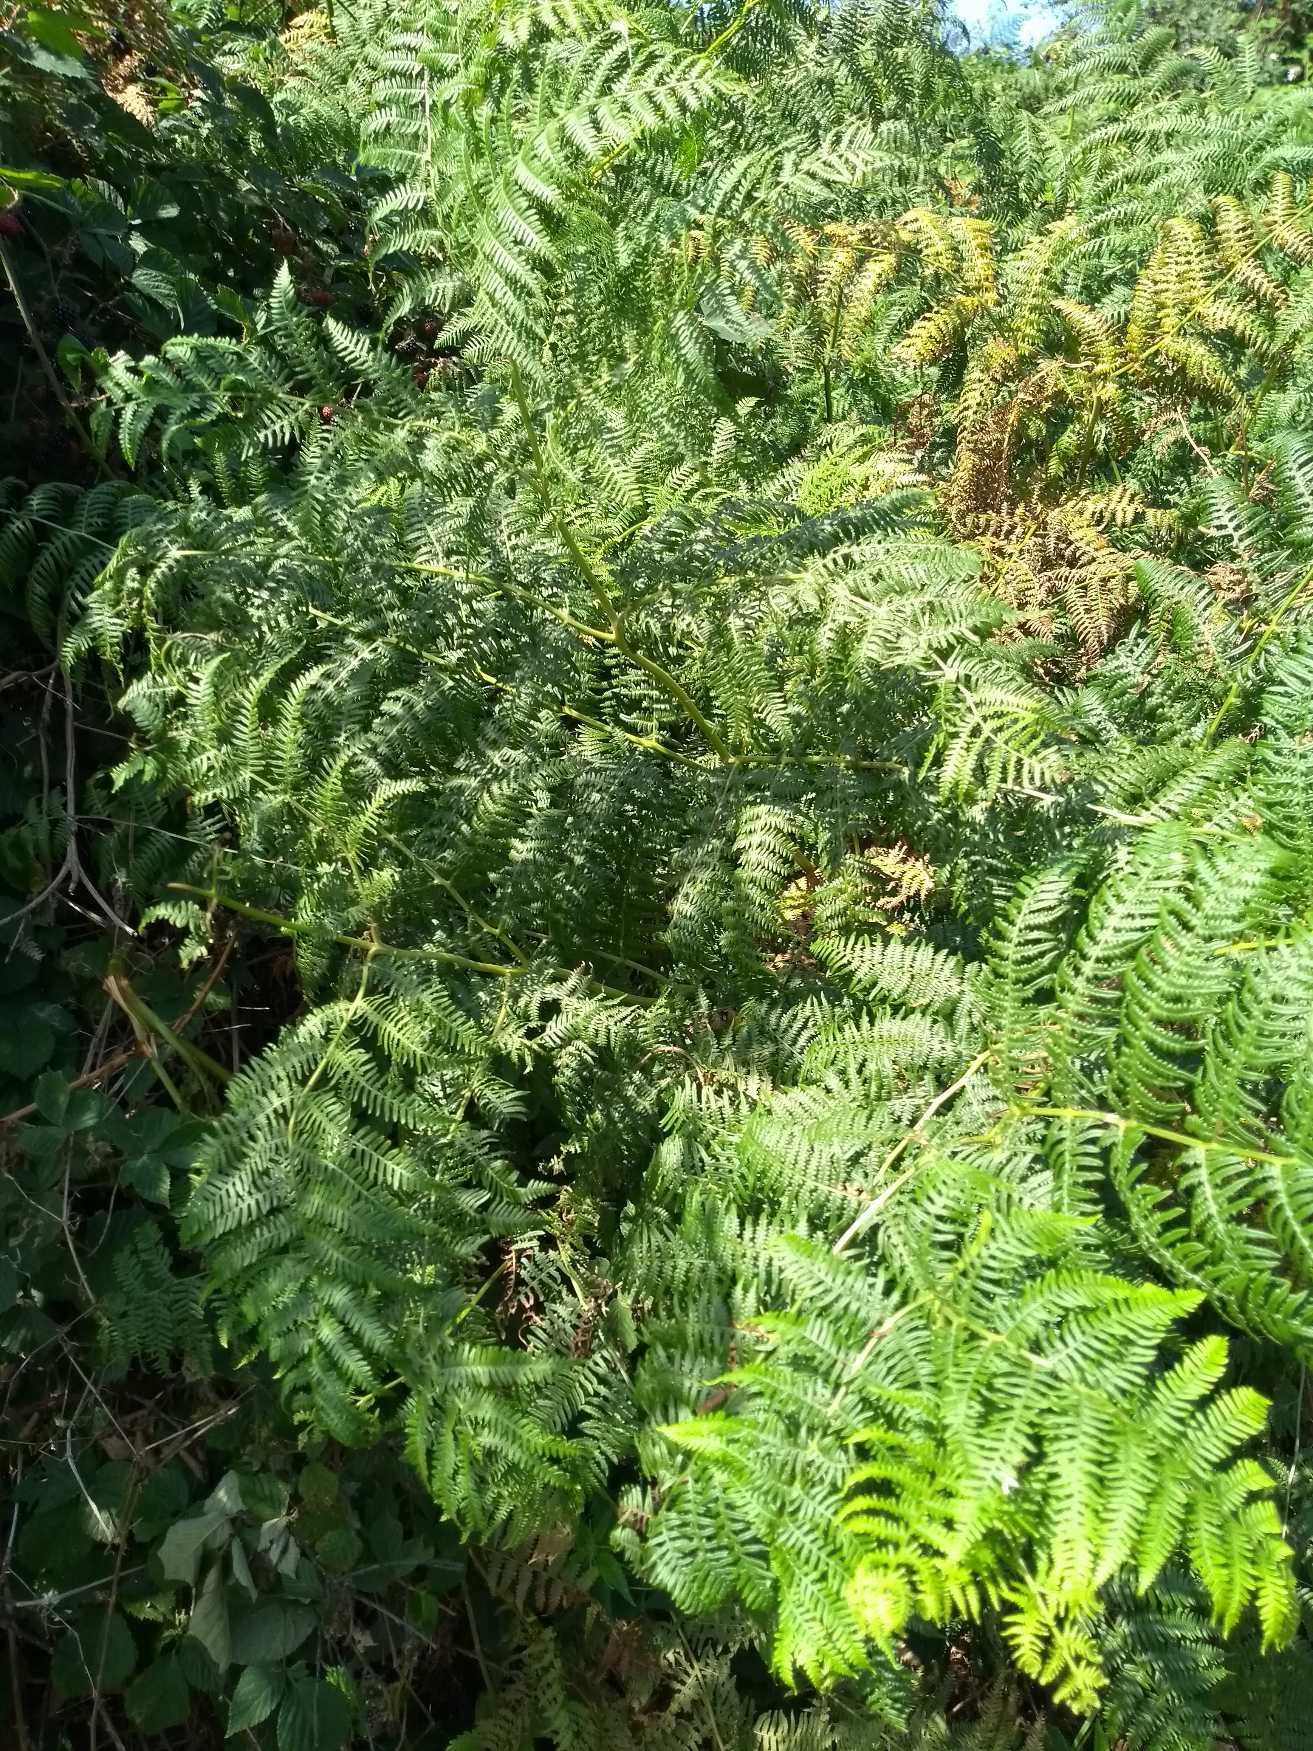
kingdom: Plantae
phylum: Tracheophyta
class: Polypodiopsida
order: Polypodiales
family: Dennstaedtiaceae
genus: Pteridium
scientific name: Pteridium aquilinum
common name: Ørnebregne
